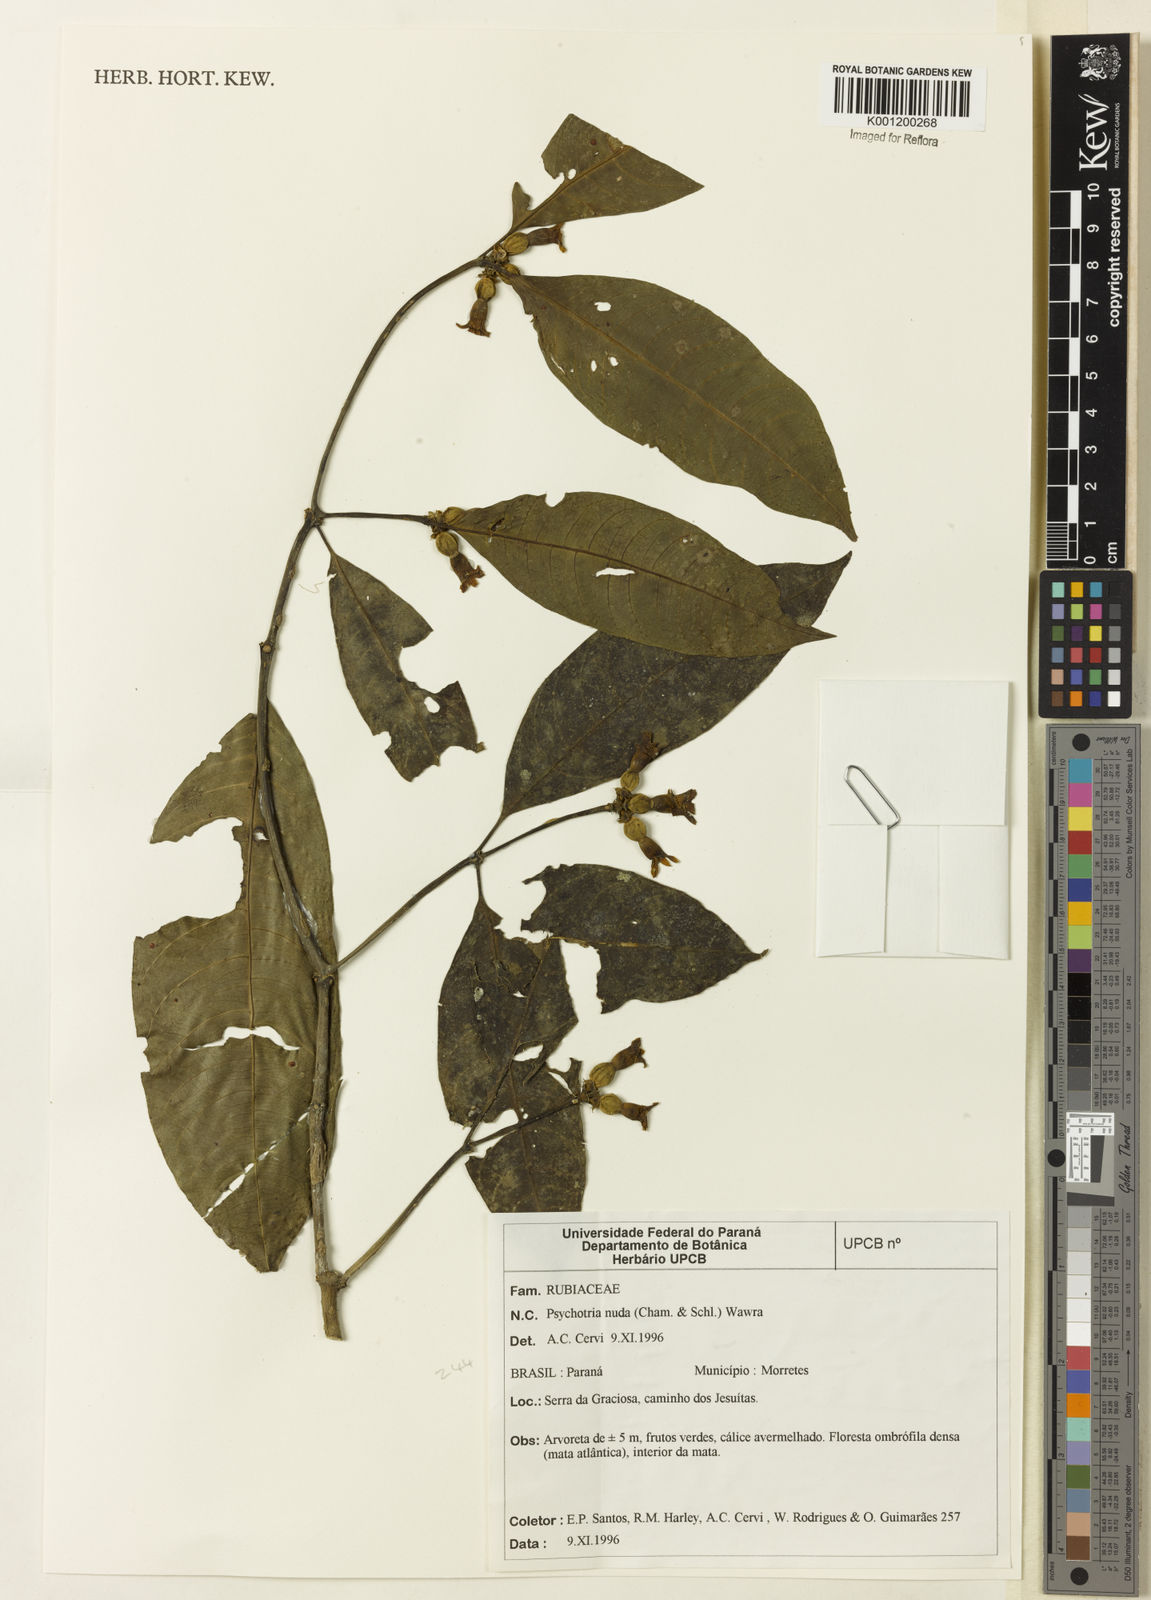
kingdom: Plantae
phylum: Tracheophyta
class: Magnoliopsida
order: Gentianales
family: Rubiaceae
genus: Psychotria
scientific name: Psychotria nuda
